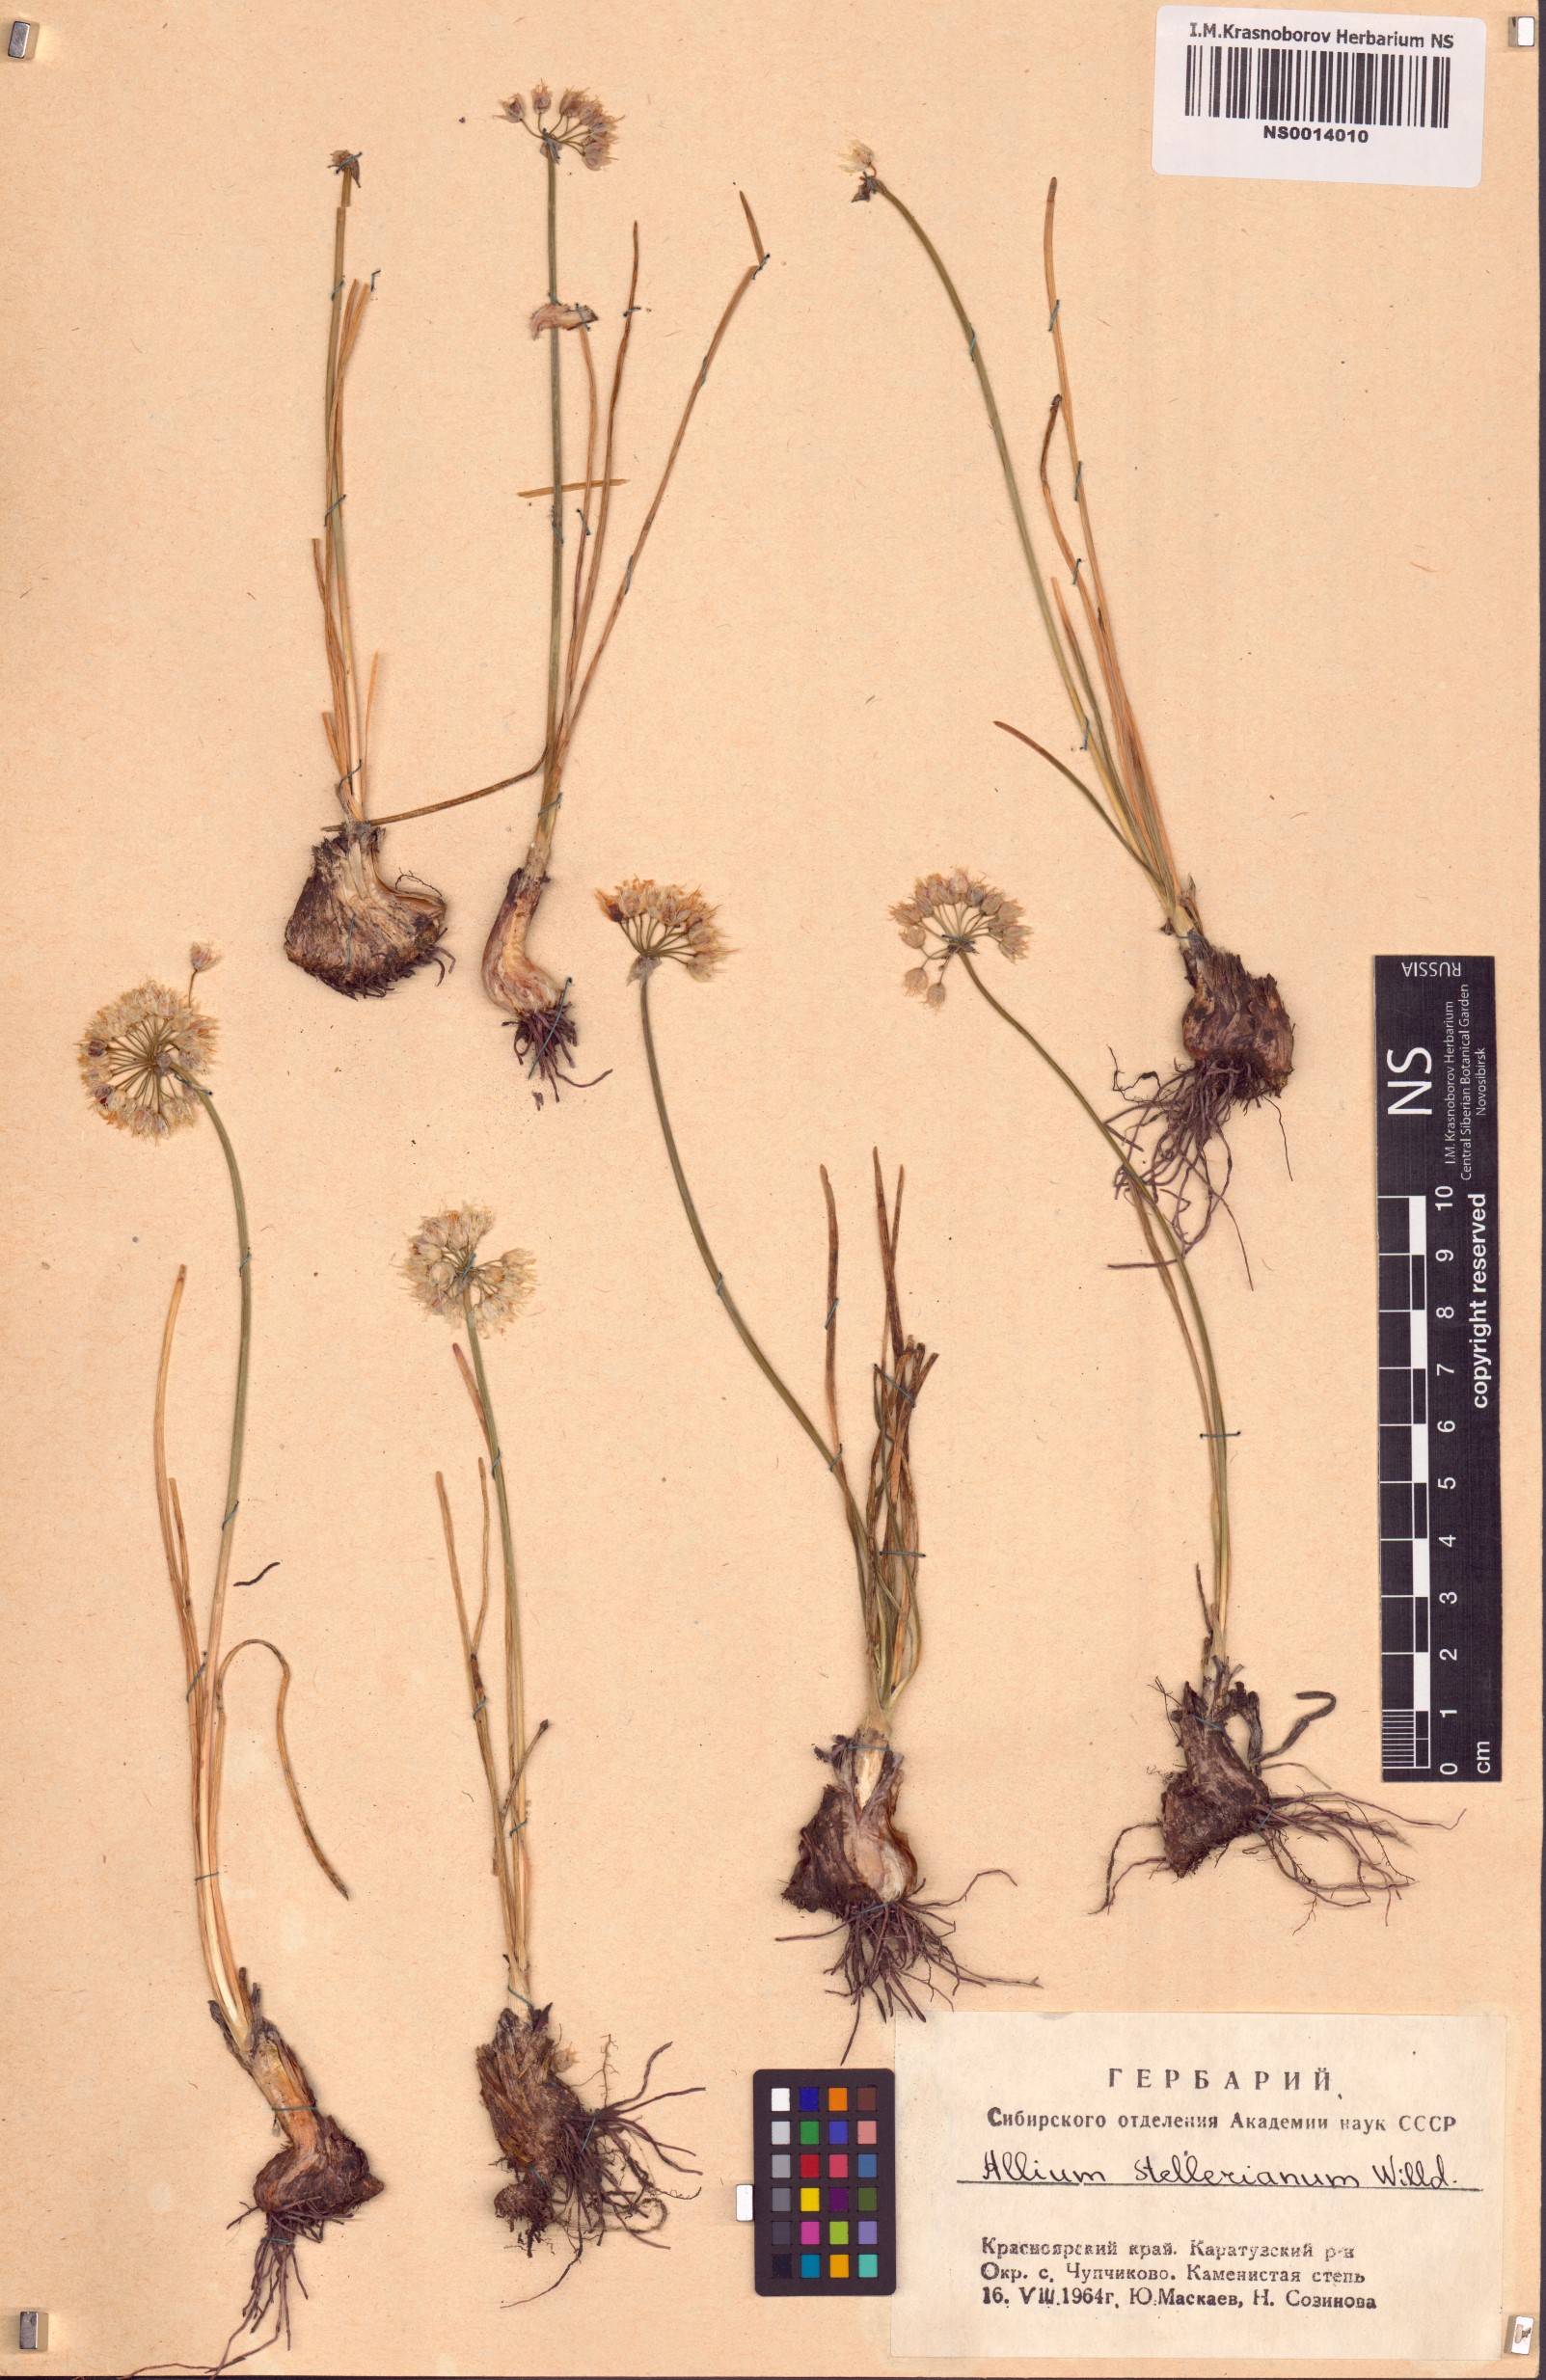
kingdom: Plantae
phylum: Tracheophyta
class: Liliopsida
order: Asparagales
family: Amaryllidaceae
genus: Allium
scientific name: Allium stellerianum
